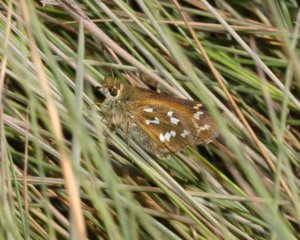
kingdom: Animalia
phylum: Arthropoda
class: Insecta
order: Lepidoptera
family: Hesperiidae
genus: Hesperia
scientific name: Hesperia comma
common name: Common Branded Skipper
